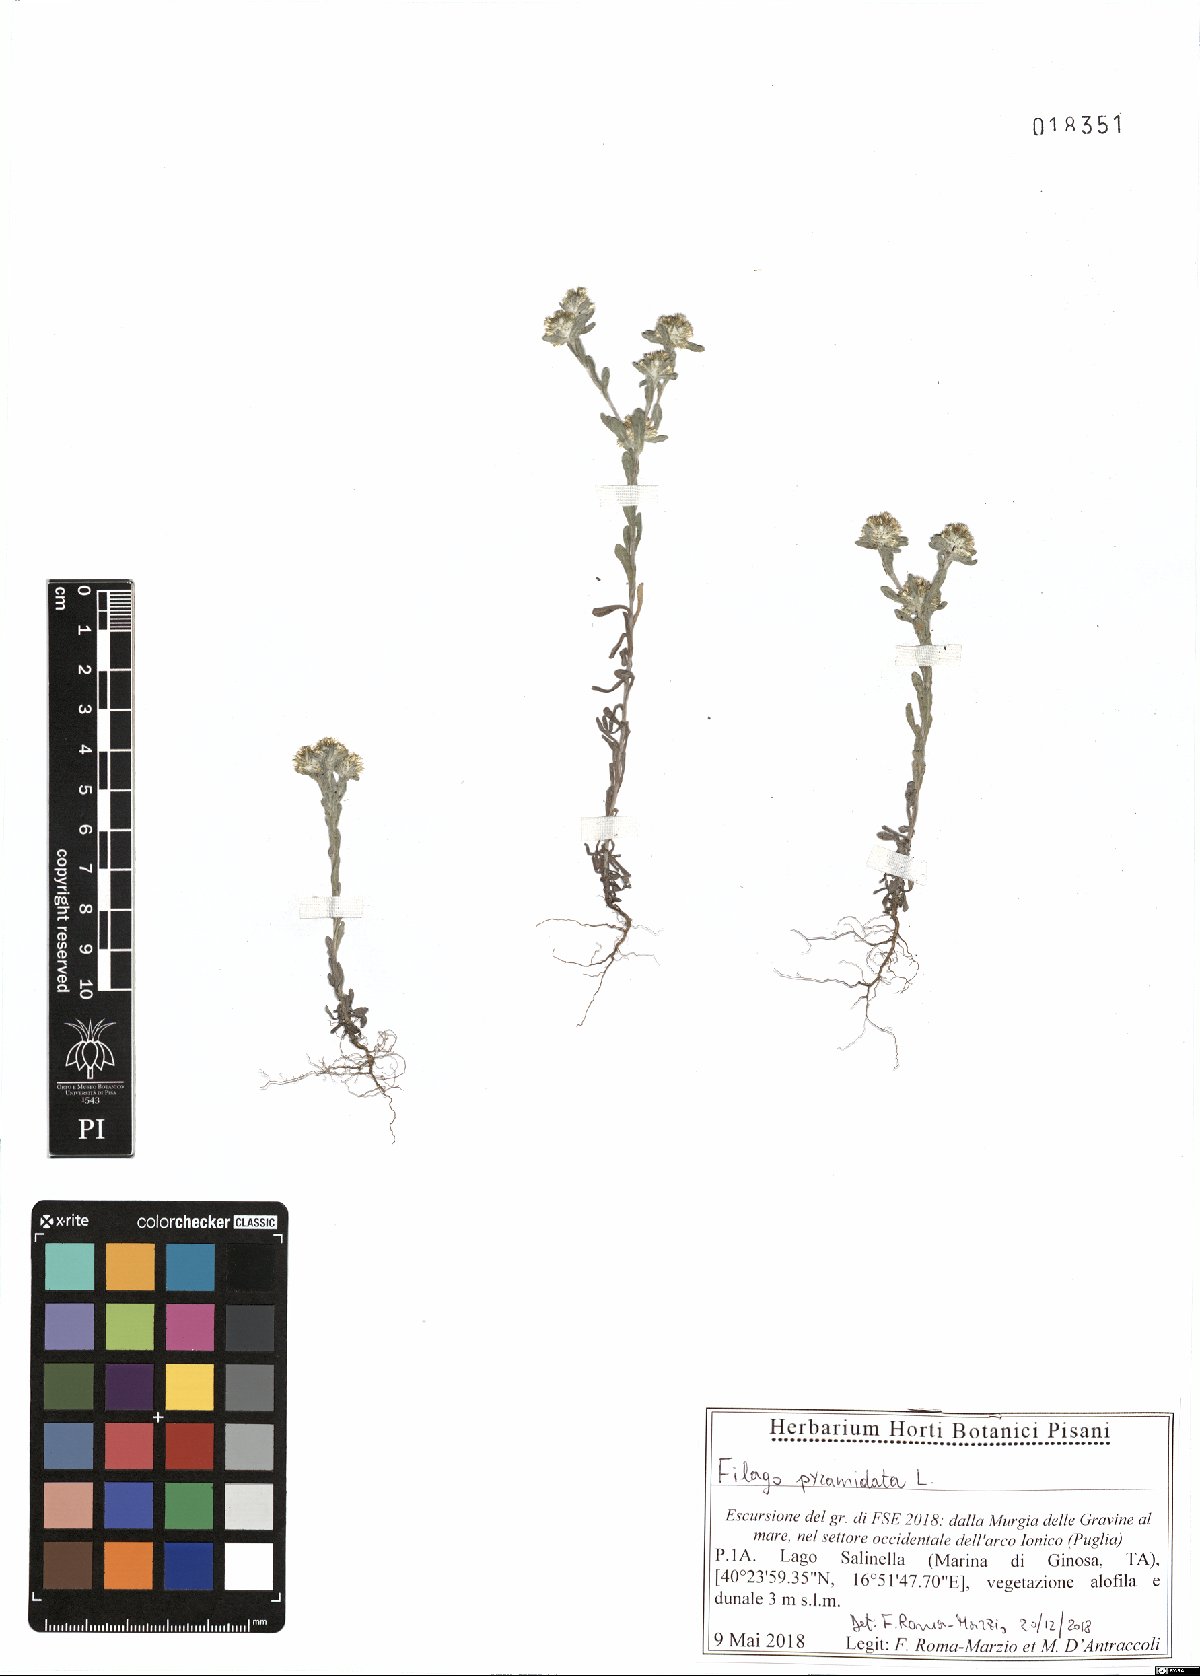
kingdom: Plantae
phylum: Tracheophyta
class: Magnoliopsida
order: Asterales
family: Asteraceae
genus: Filago
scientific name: Filago pyramidata
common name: Broad-leaved cudweed
